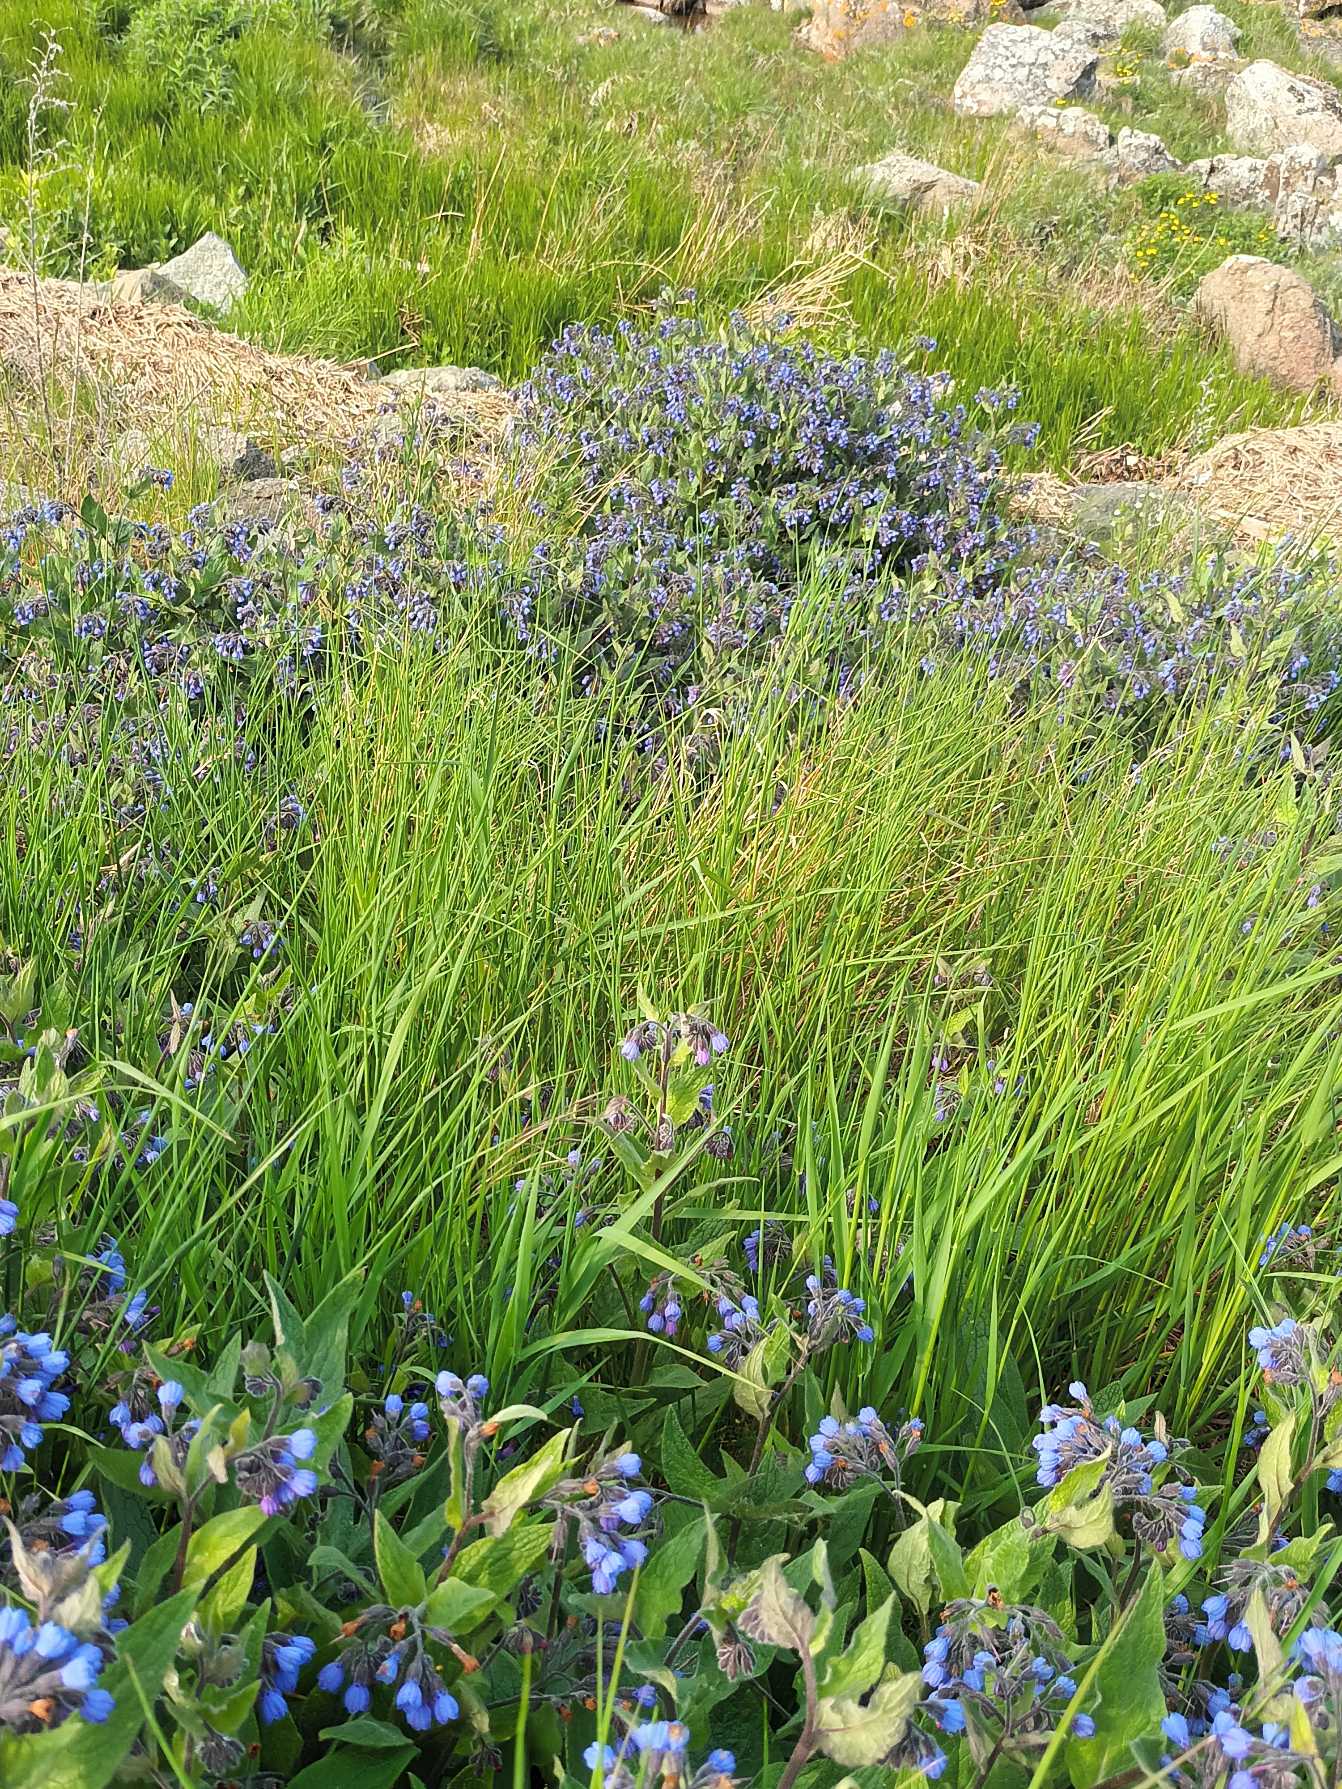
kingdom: Plantae
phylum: Tracheophyta
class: Magnoliopsida
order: Boraginales
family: Boraginaceae
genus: Symphytum
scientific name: Symphytum caucasicum
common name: Kaukasisk kulsukker
